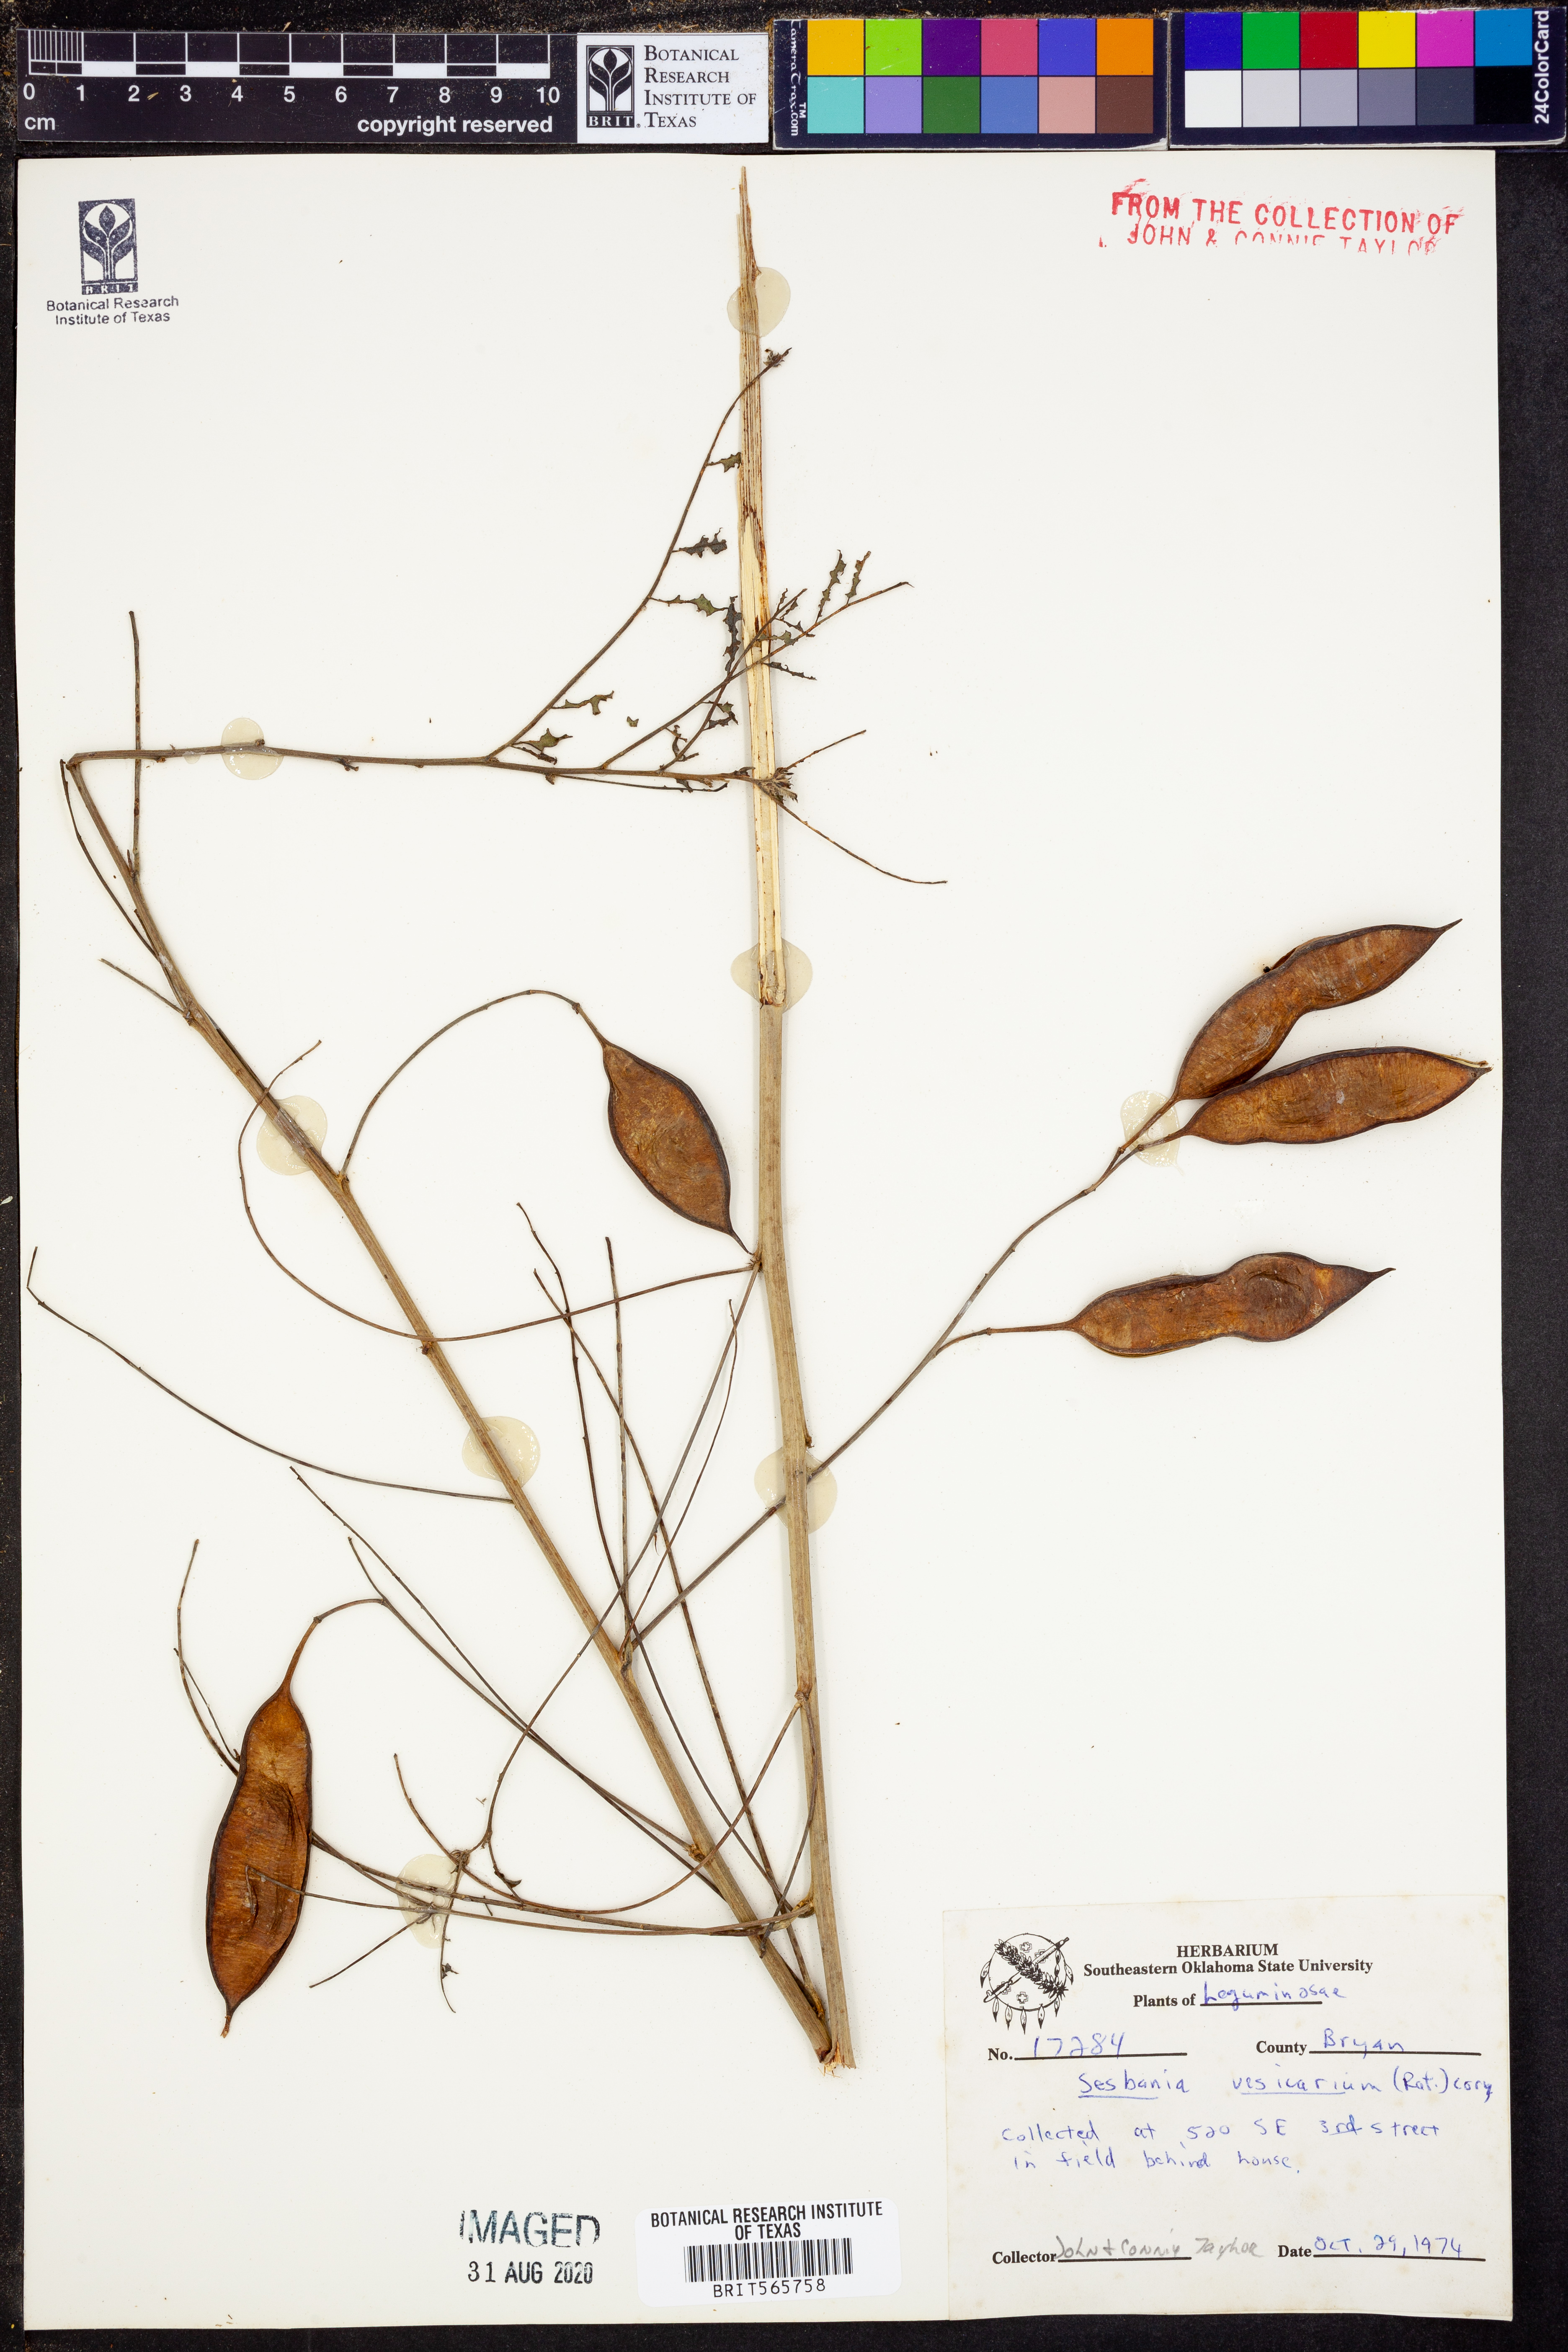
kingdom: Plantae
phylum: Tracheophyta
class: Magnoliopsida
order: Fabales
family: Fabaceae
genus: Sesbania
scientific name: Sesbania vesicaria
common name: Bagpod
